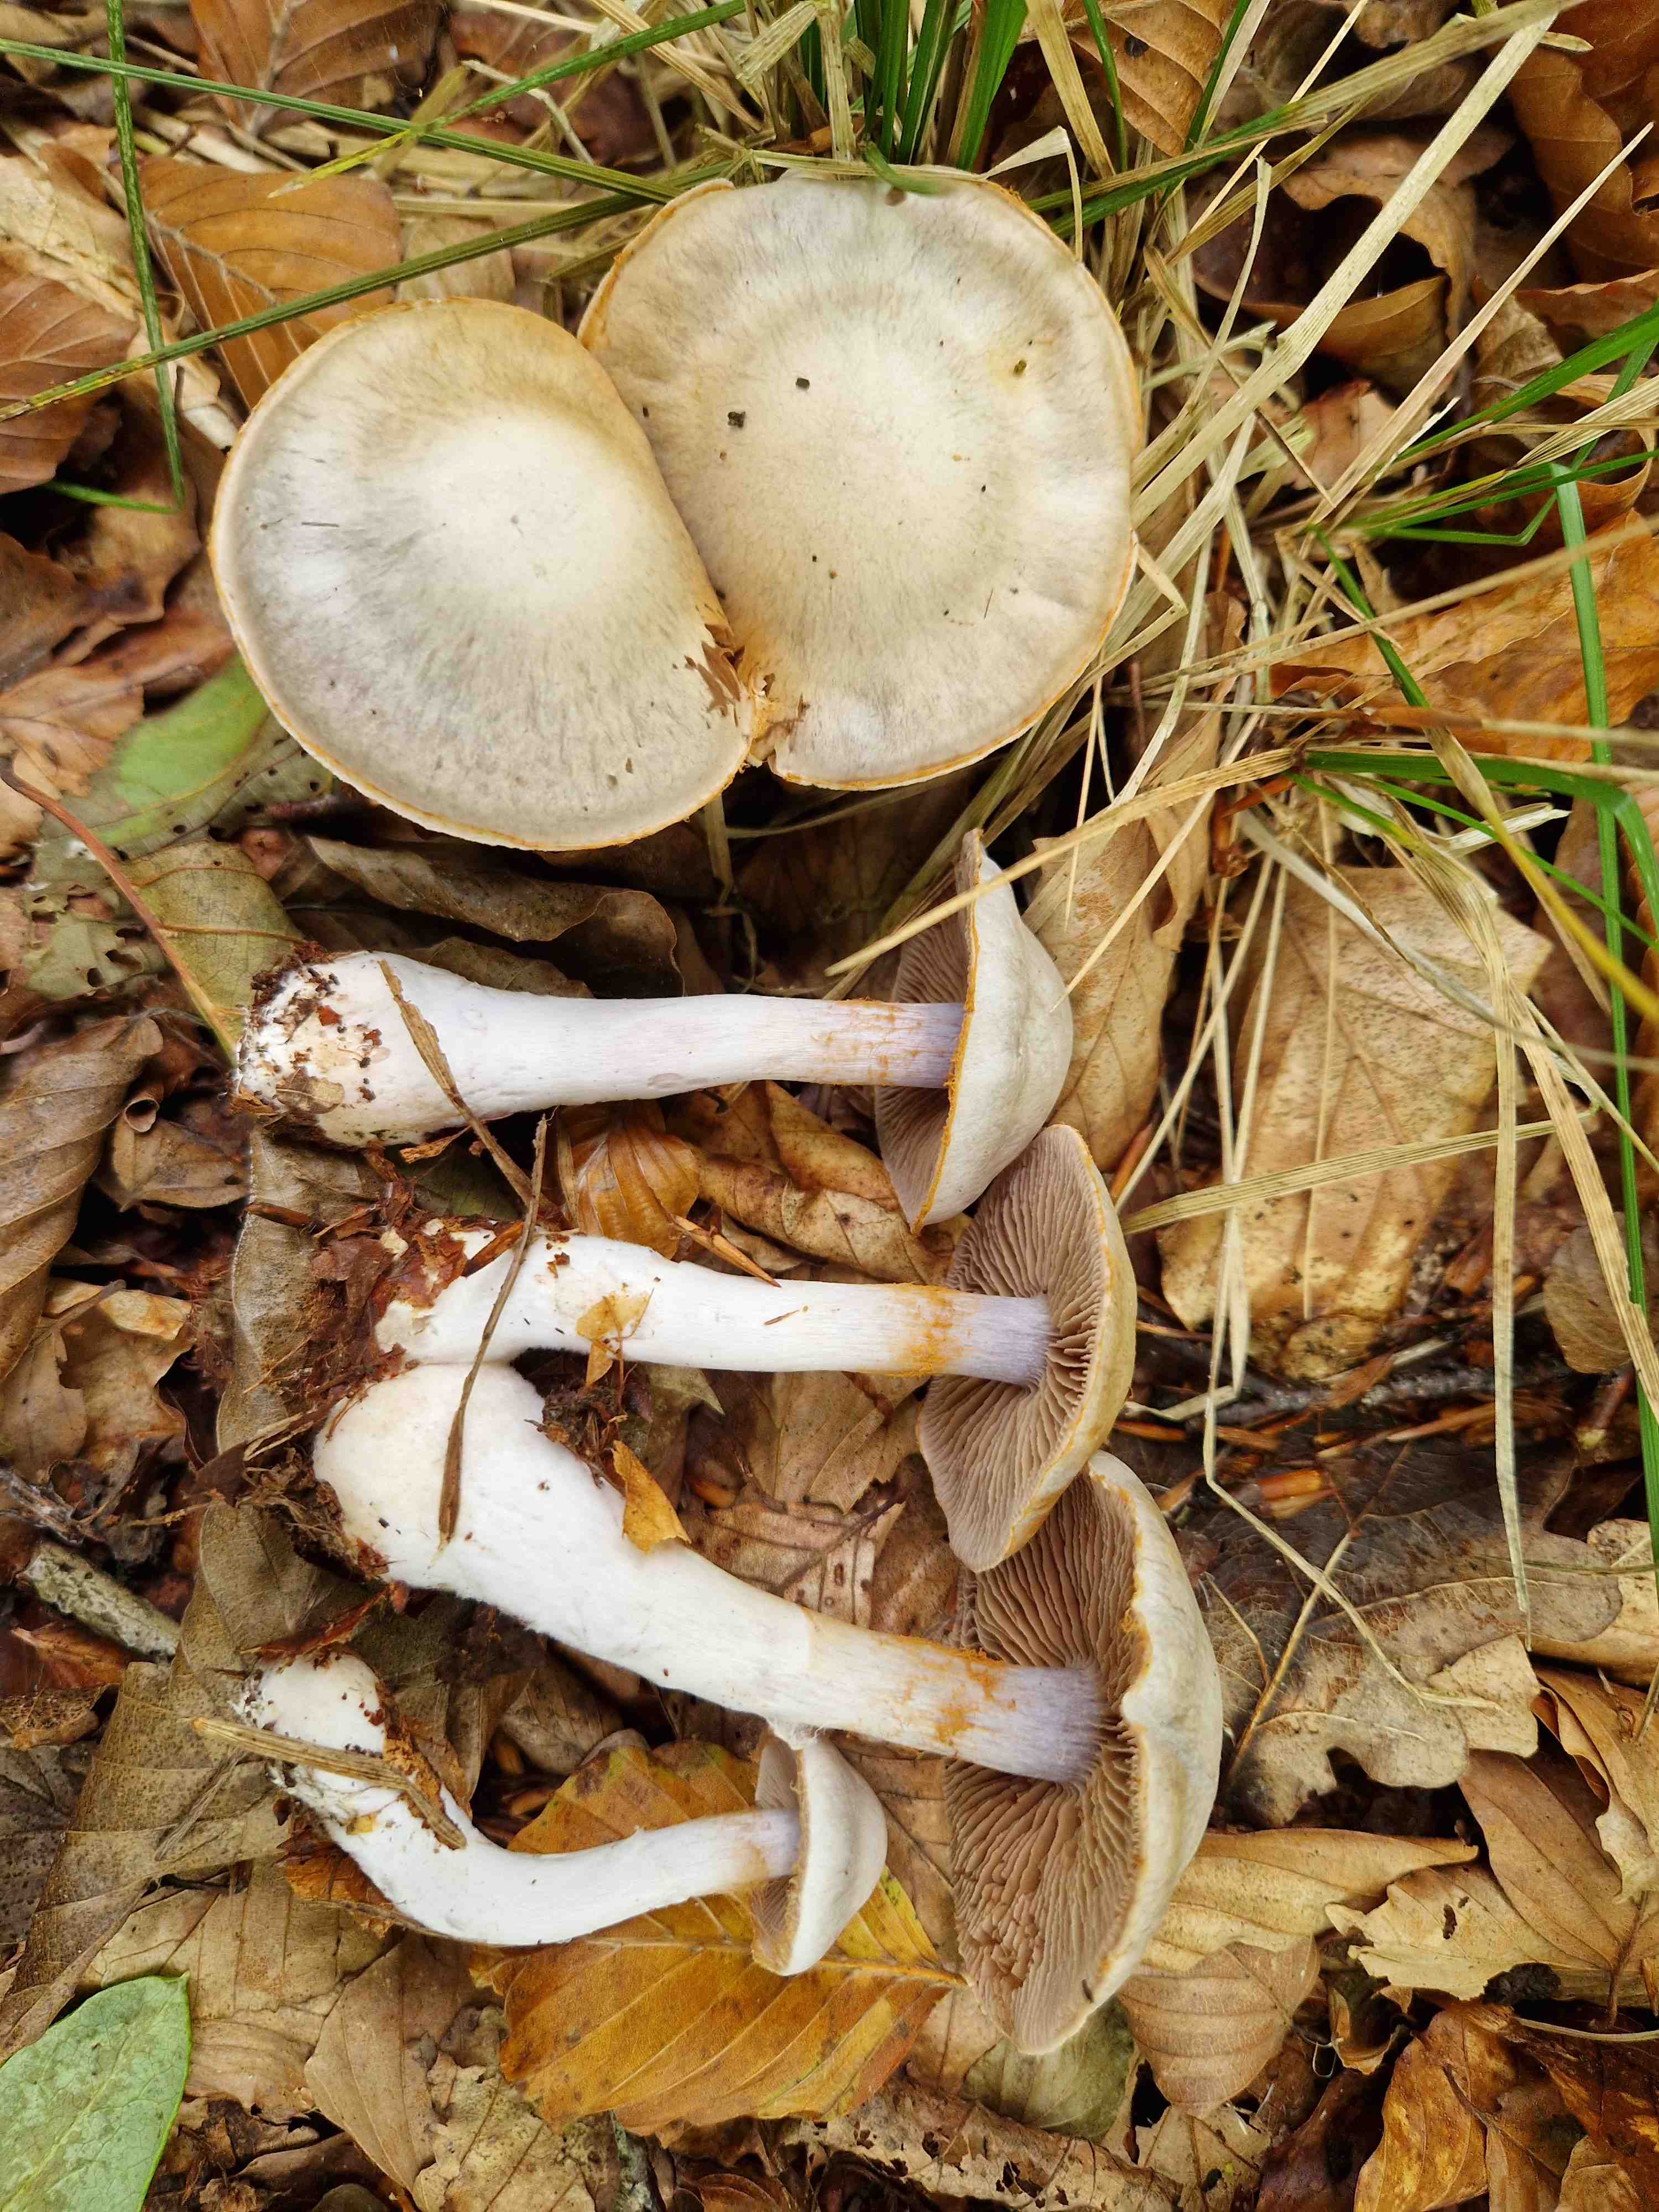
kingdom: Fungi
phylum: Basidiomycota
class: Agaricomycetes
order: Agaricales
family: Cortinariaceae
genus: Cortinarius
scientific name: Cortinarius alboviolaceus
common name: lysviolet slørhat
